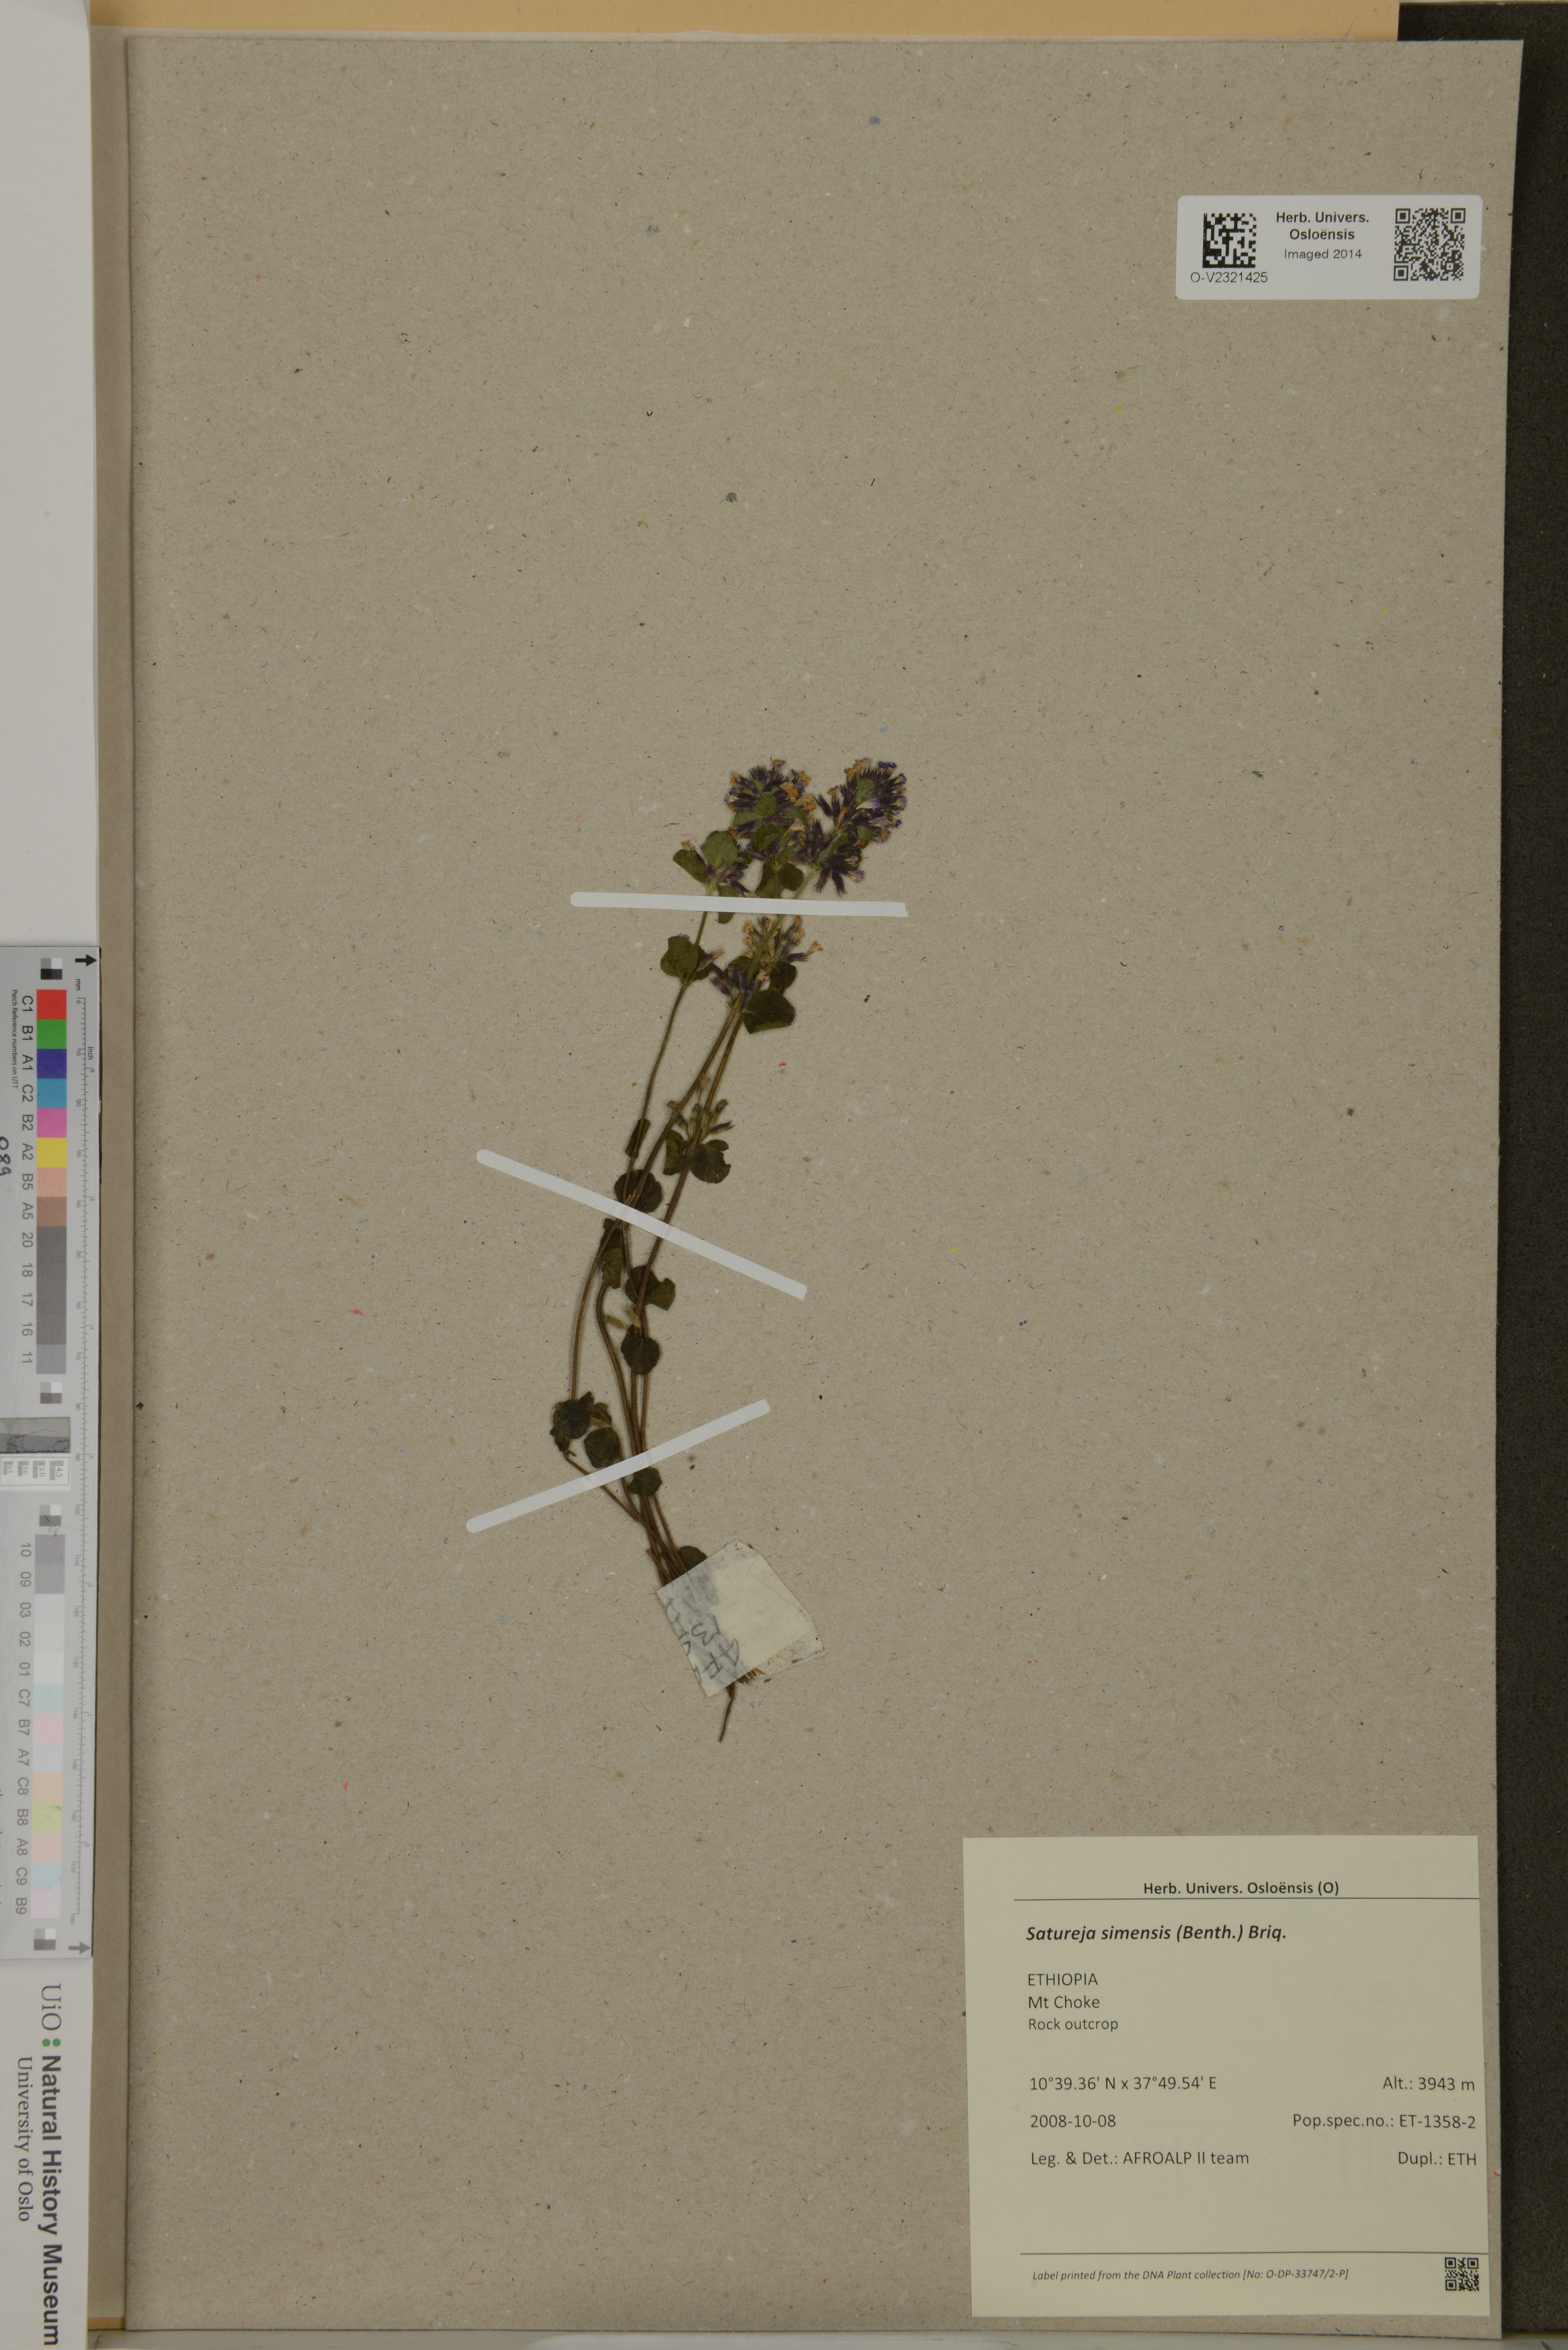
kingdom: Plantae
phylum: Tracheophyta
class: Magnoliopsida
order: Lamiales
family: Lamiaceae
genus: Clinopodium
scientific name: Clinopodium simense
